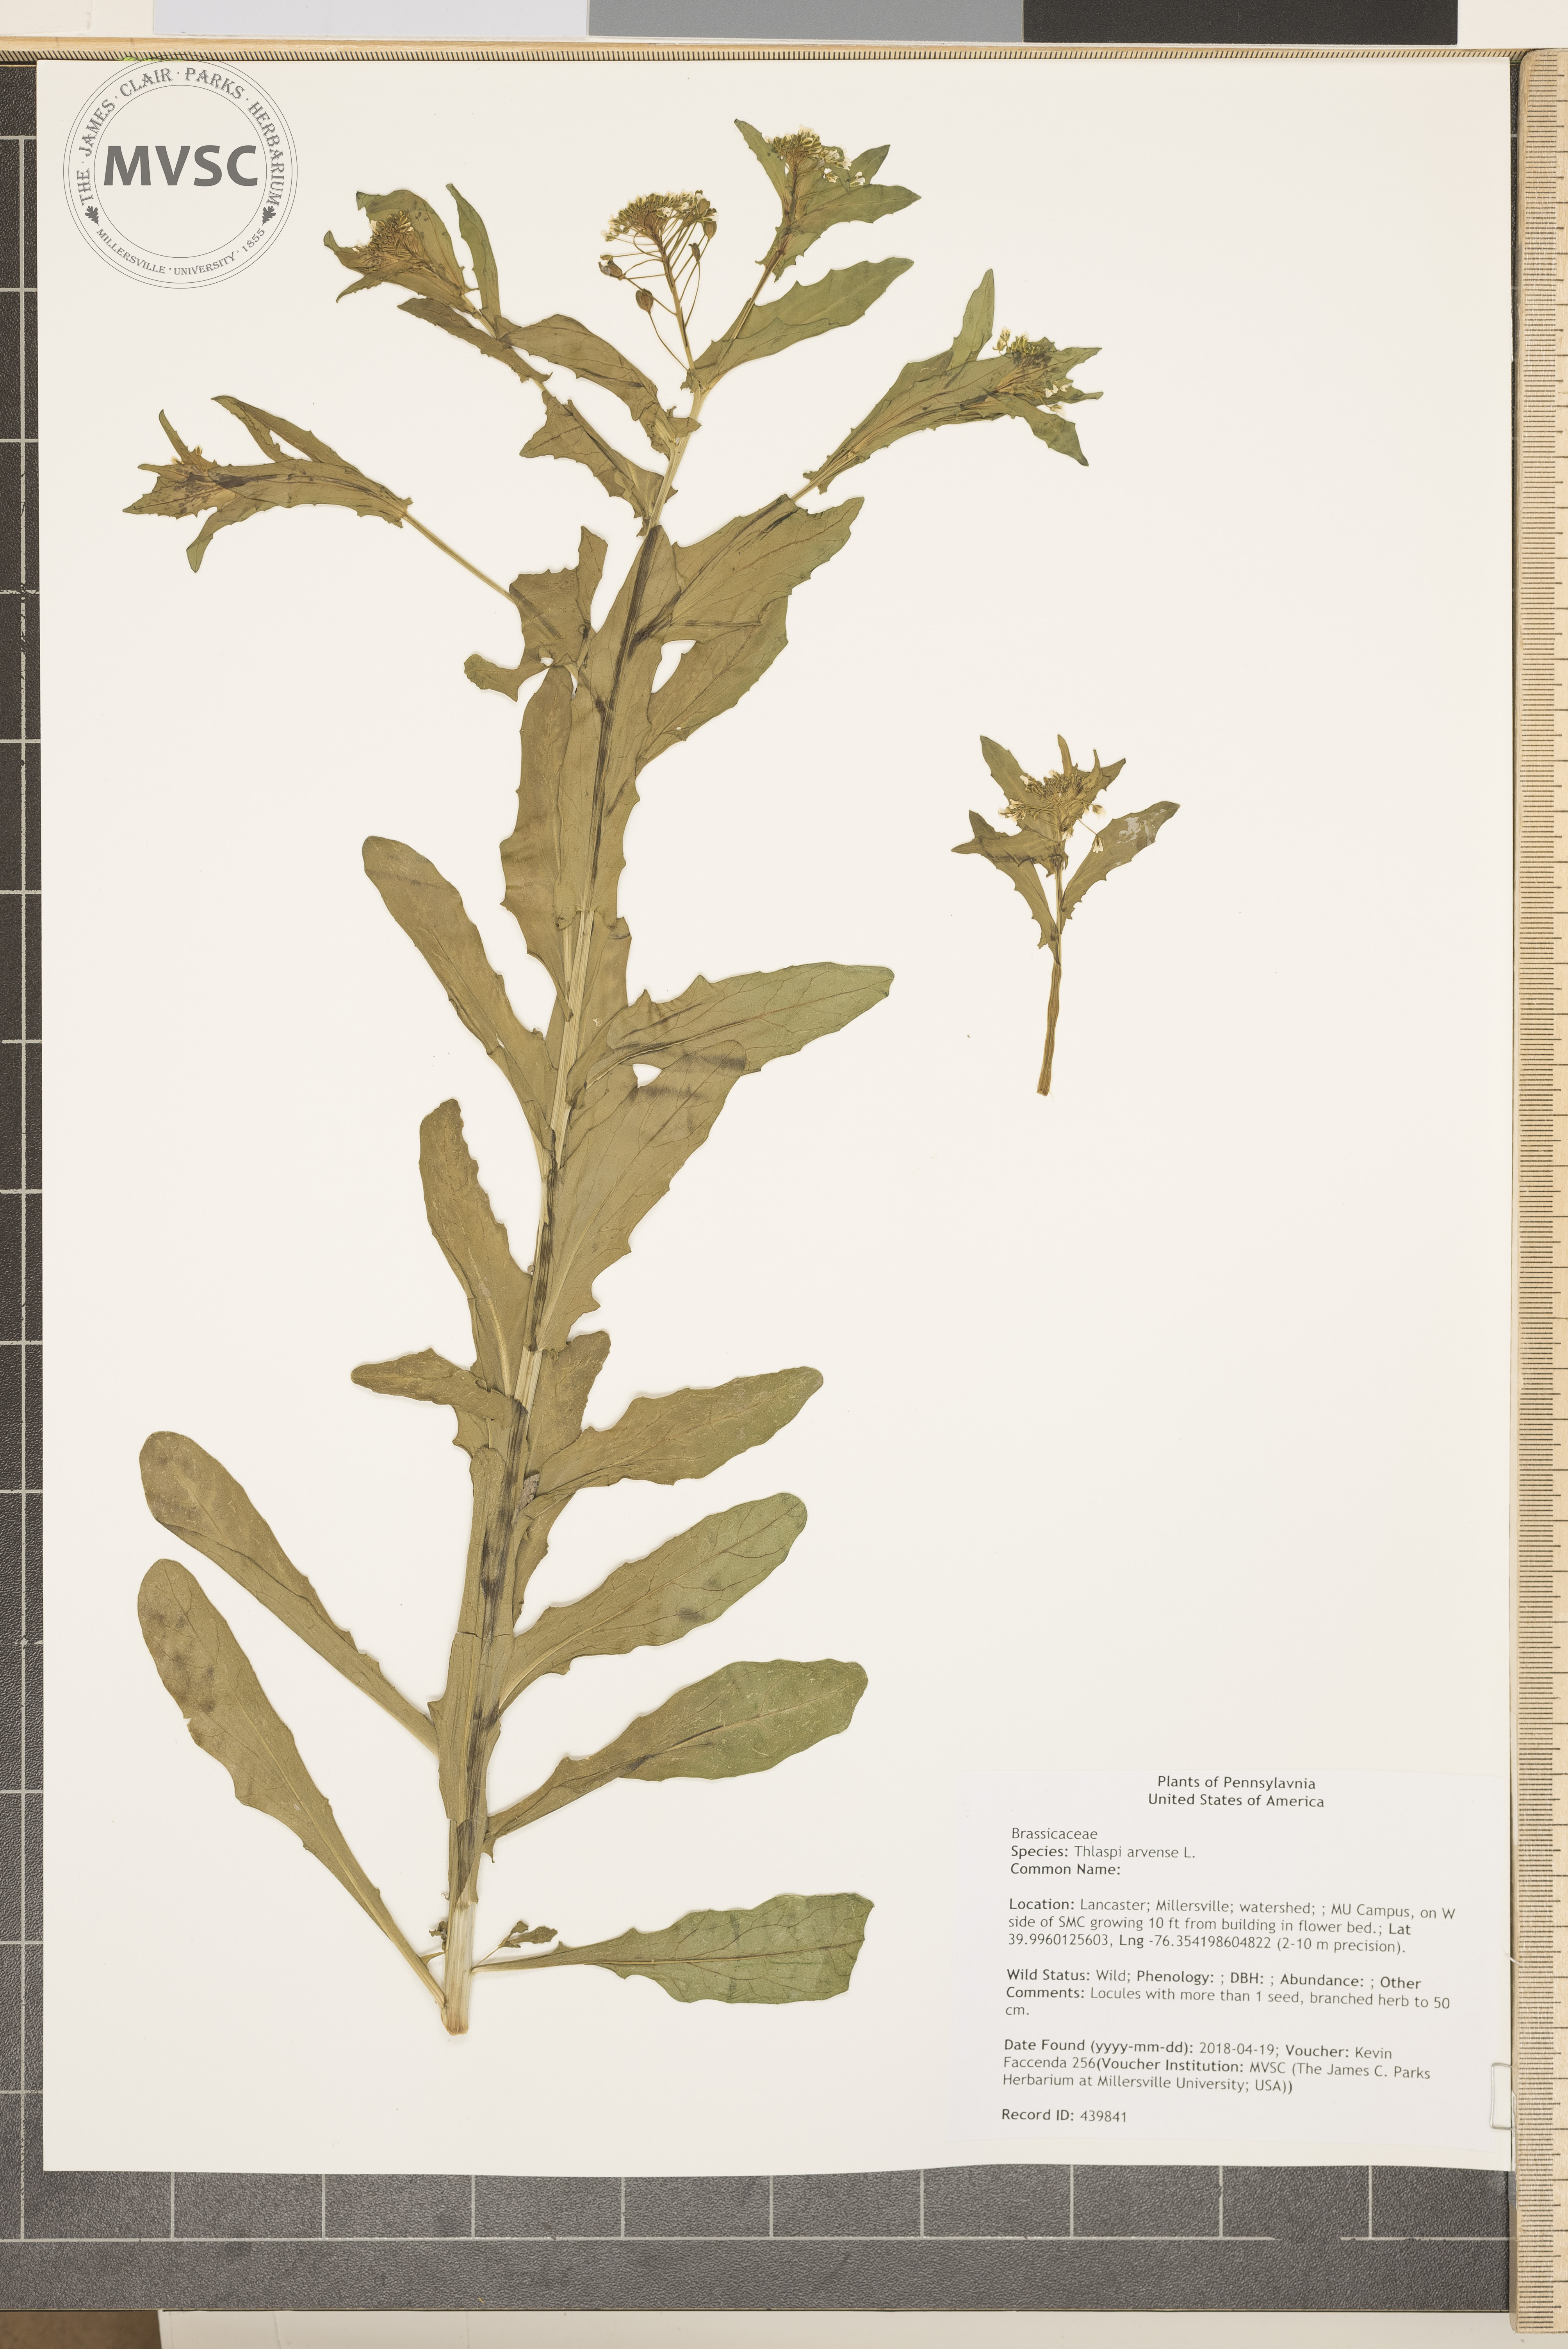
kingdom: Plantae
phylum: Tracheophyta
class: Magnoliopsida
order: Brassicales
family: Brassicaceae
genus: Thlaspi
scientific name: Thlaspi arvense
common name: Field pennycress
